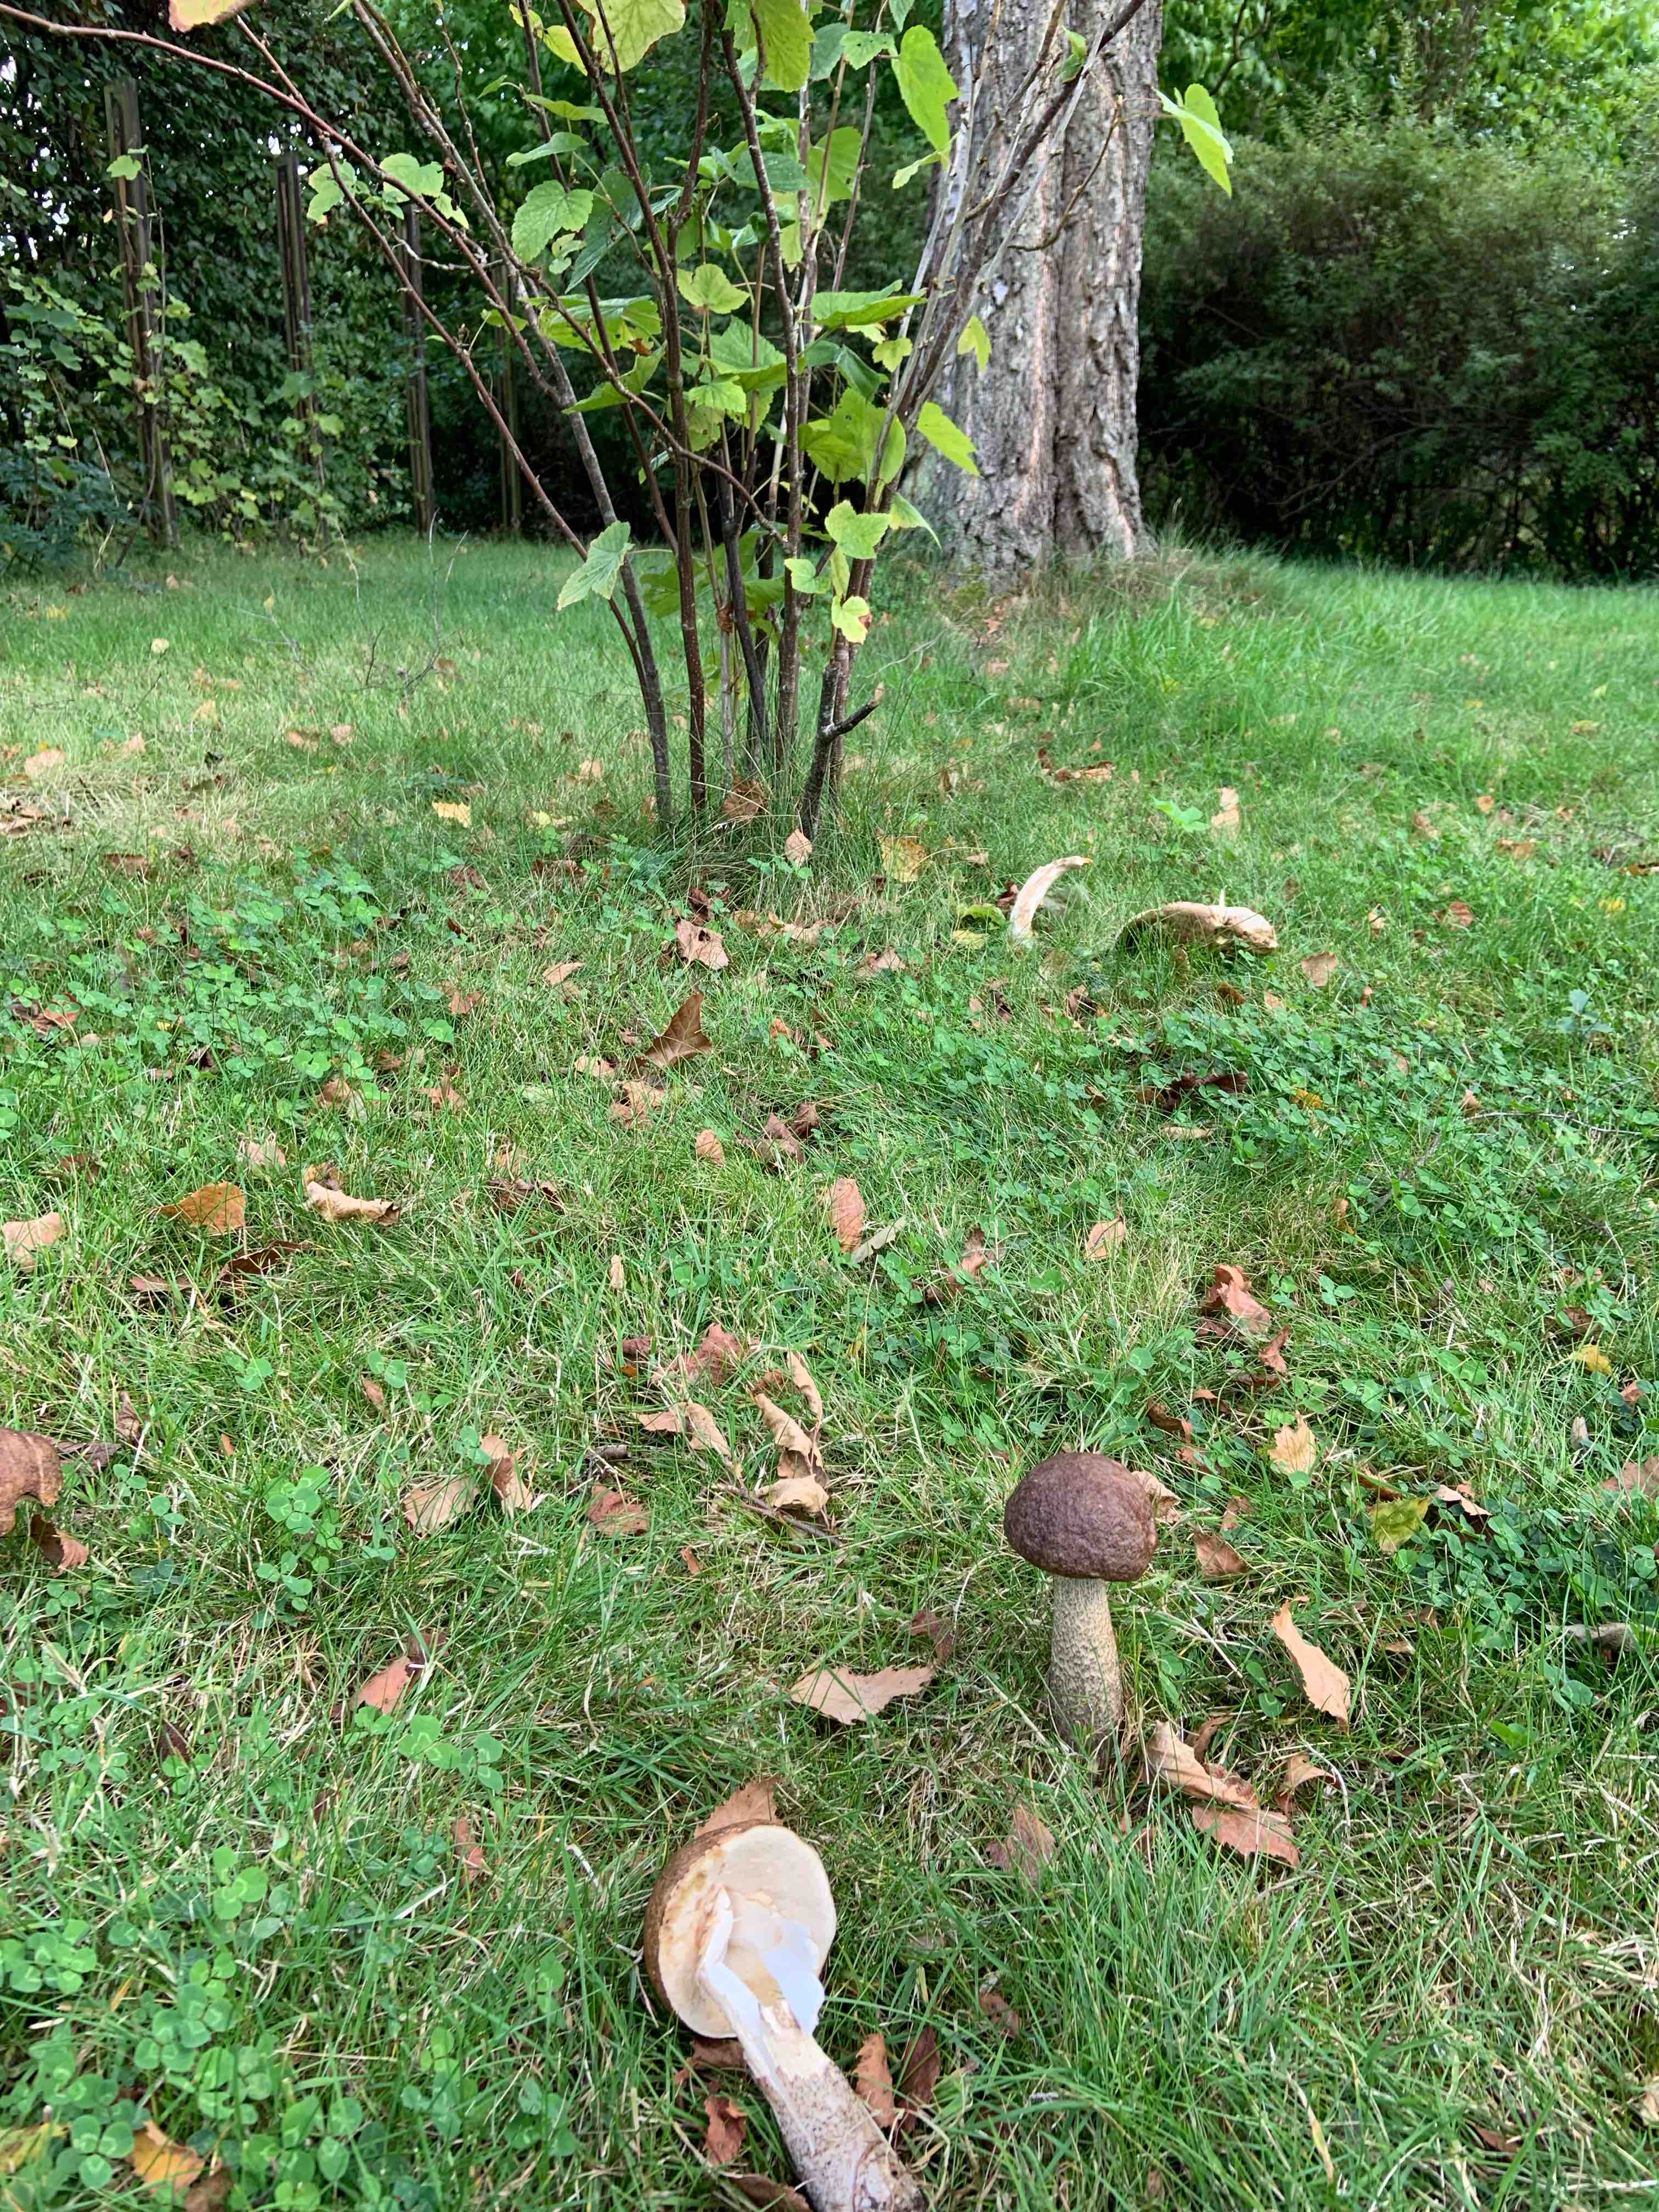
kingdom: Fungi
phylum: Basidiomycota
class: Agaricomycetes
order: Boletales
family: Boletaceae
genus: Leccinum
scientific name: Leccinum scabrum
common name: brun skælrørhat
